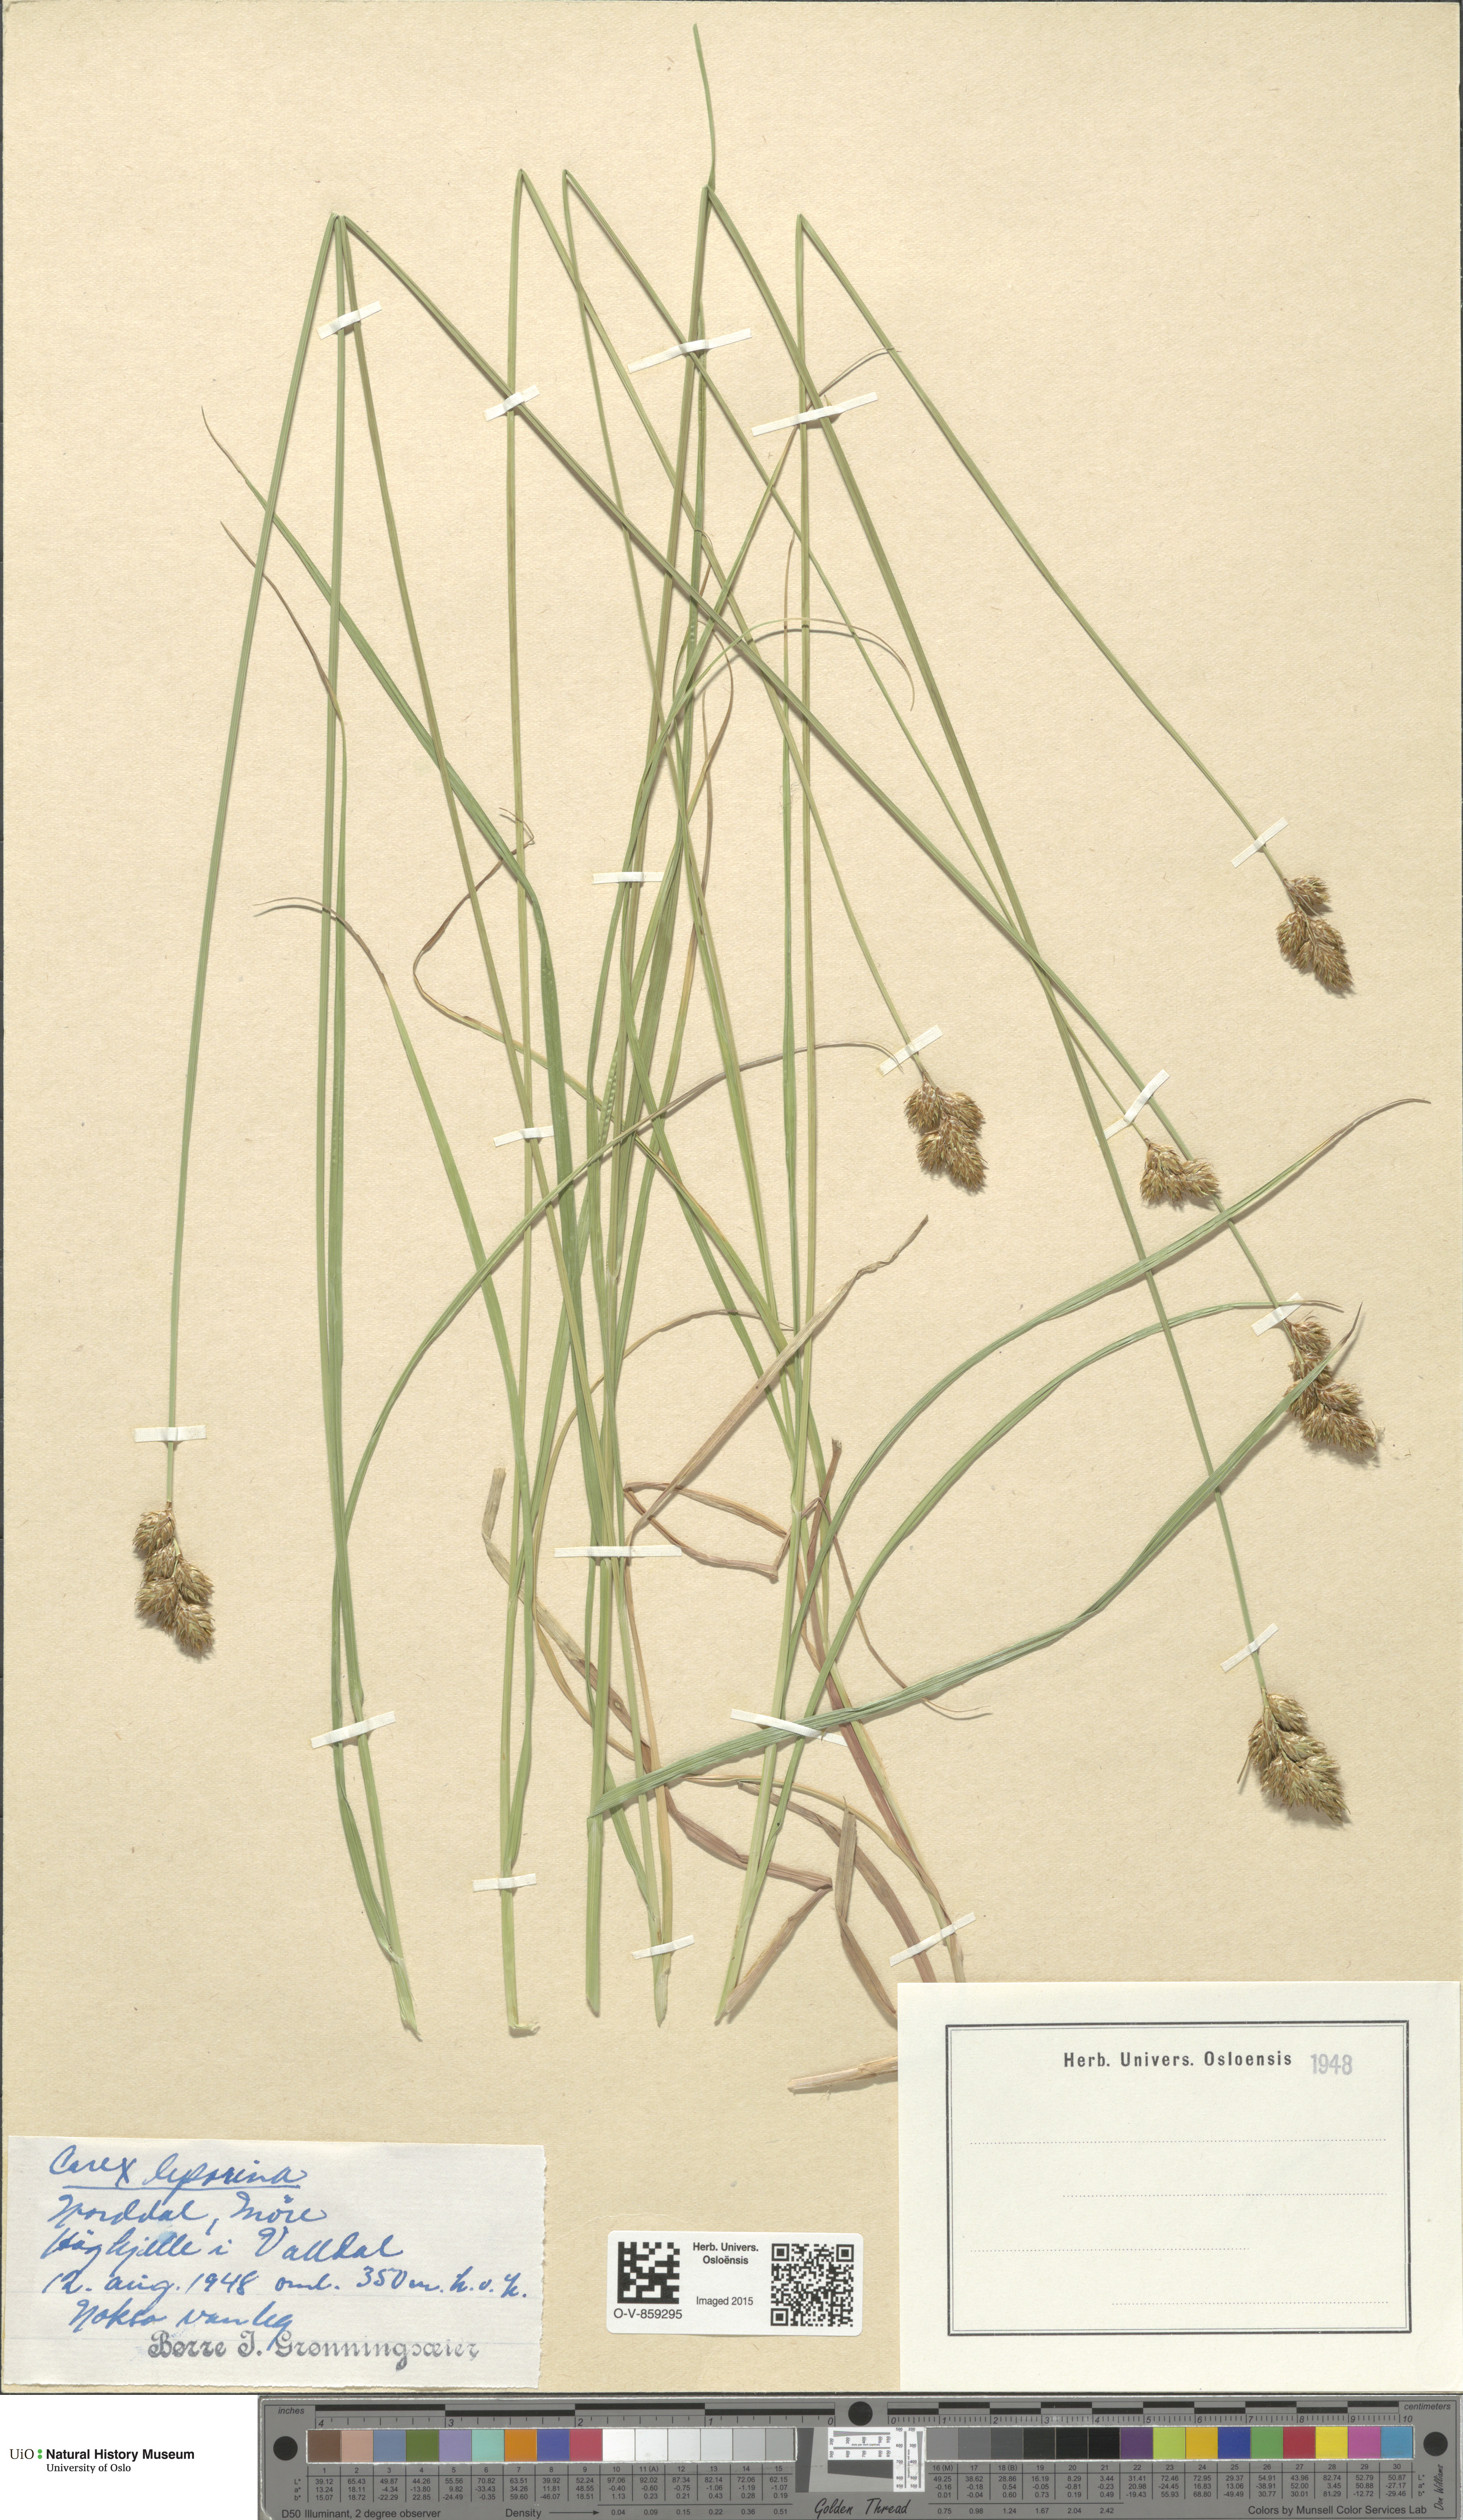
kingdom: Plantae
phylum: Tracheophyta
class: Liliopsida
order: Poales
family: Cyperaceae
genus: Carex
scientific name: Carex leporina
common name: Oval sedge
